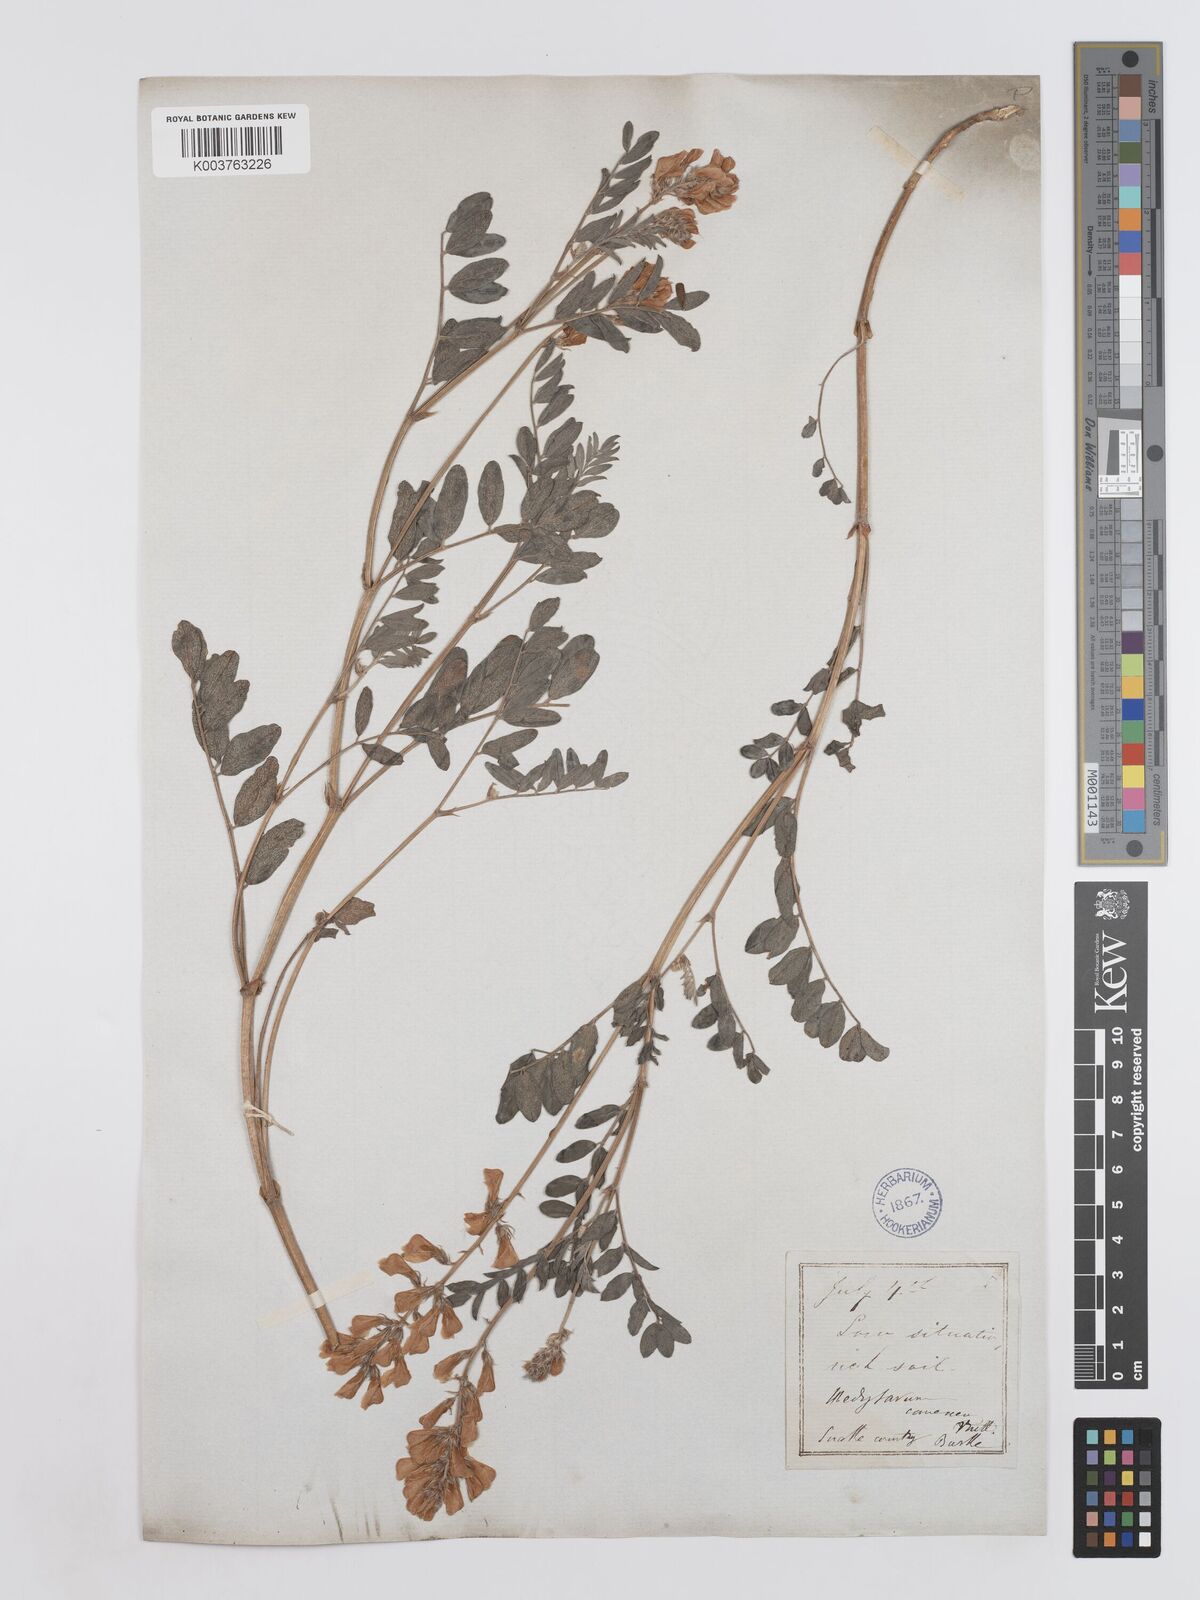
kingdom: Plantae
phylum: Tracheophyta
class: Magnoliopsida
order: Fabales
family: Fabaceae
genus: Hedysarum
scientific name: Hedysarum boreale
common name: Northern sweet-vetch
